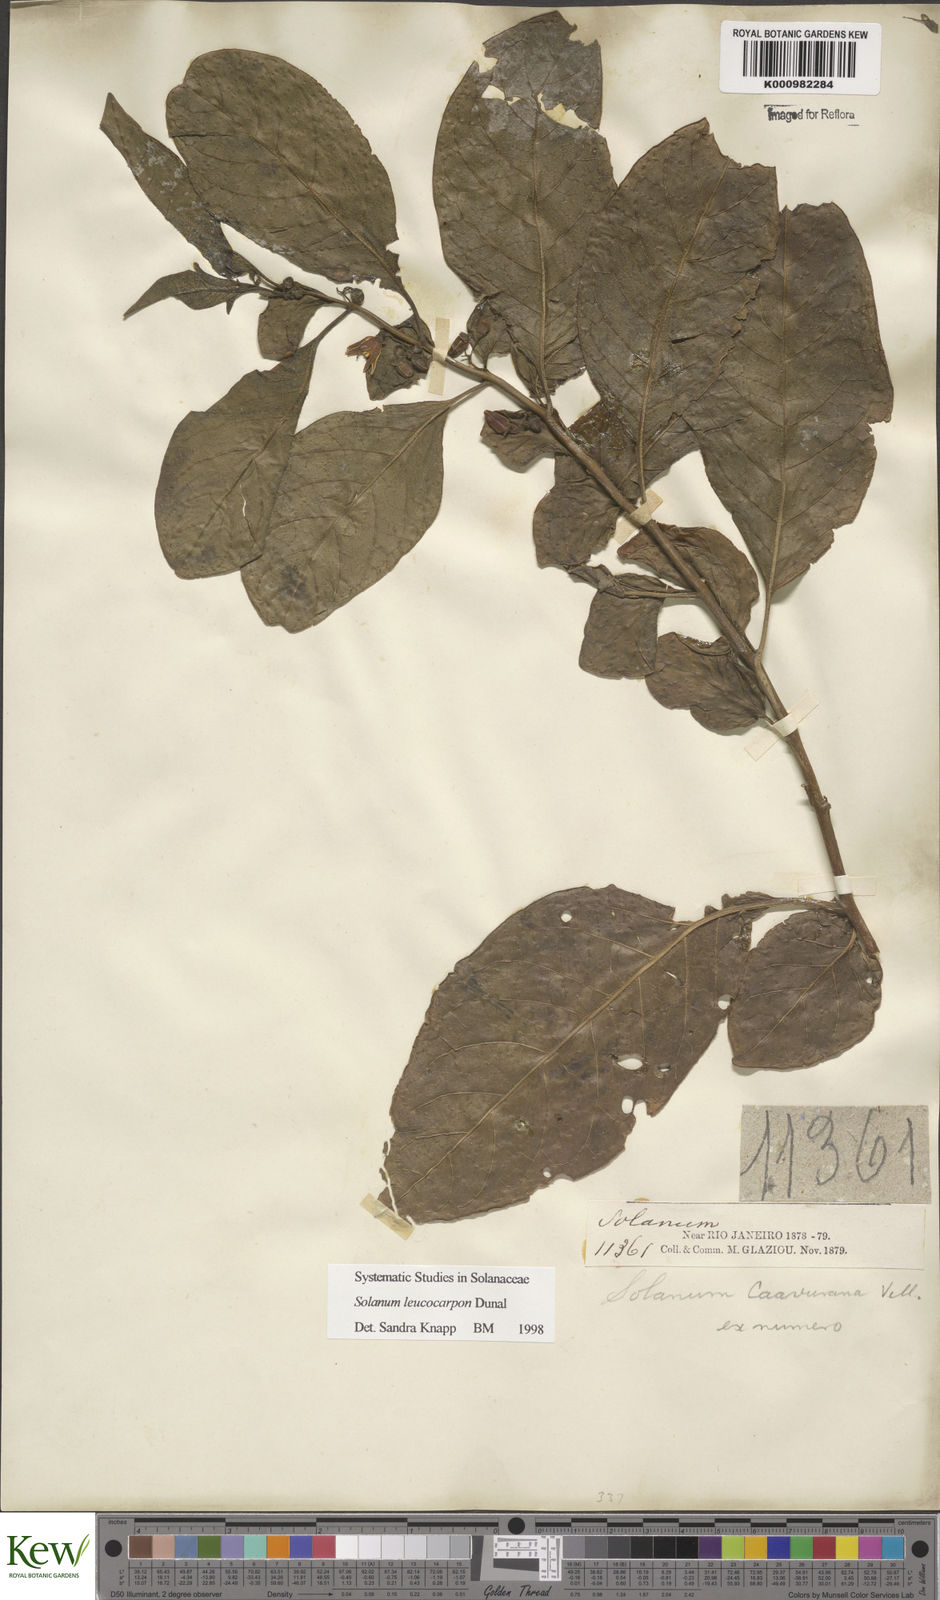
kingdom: Plantae
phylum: Tracheophyta
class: Magnoliopsida
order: Solanales
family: Solanaceae
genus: Solanum
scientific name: Solanum leucocarpon
